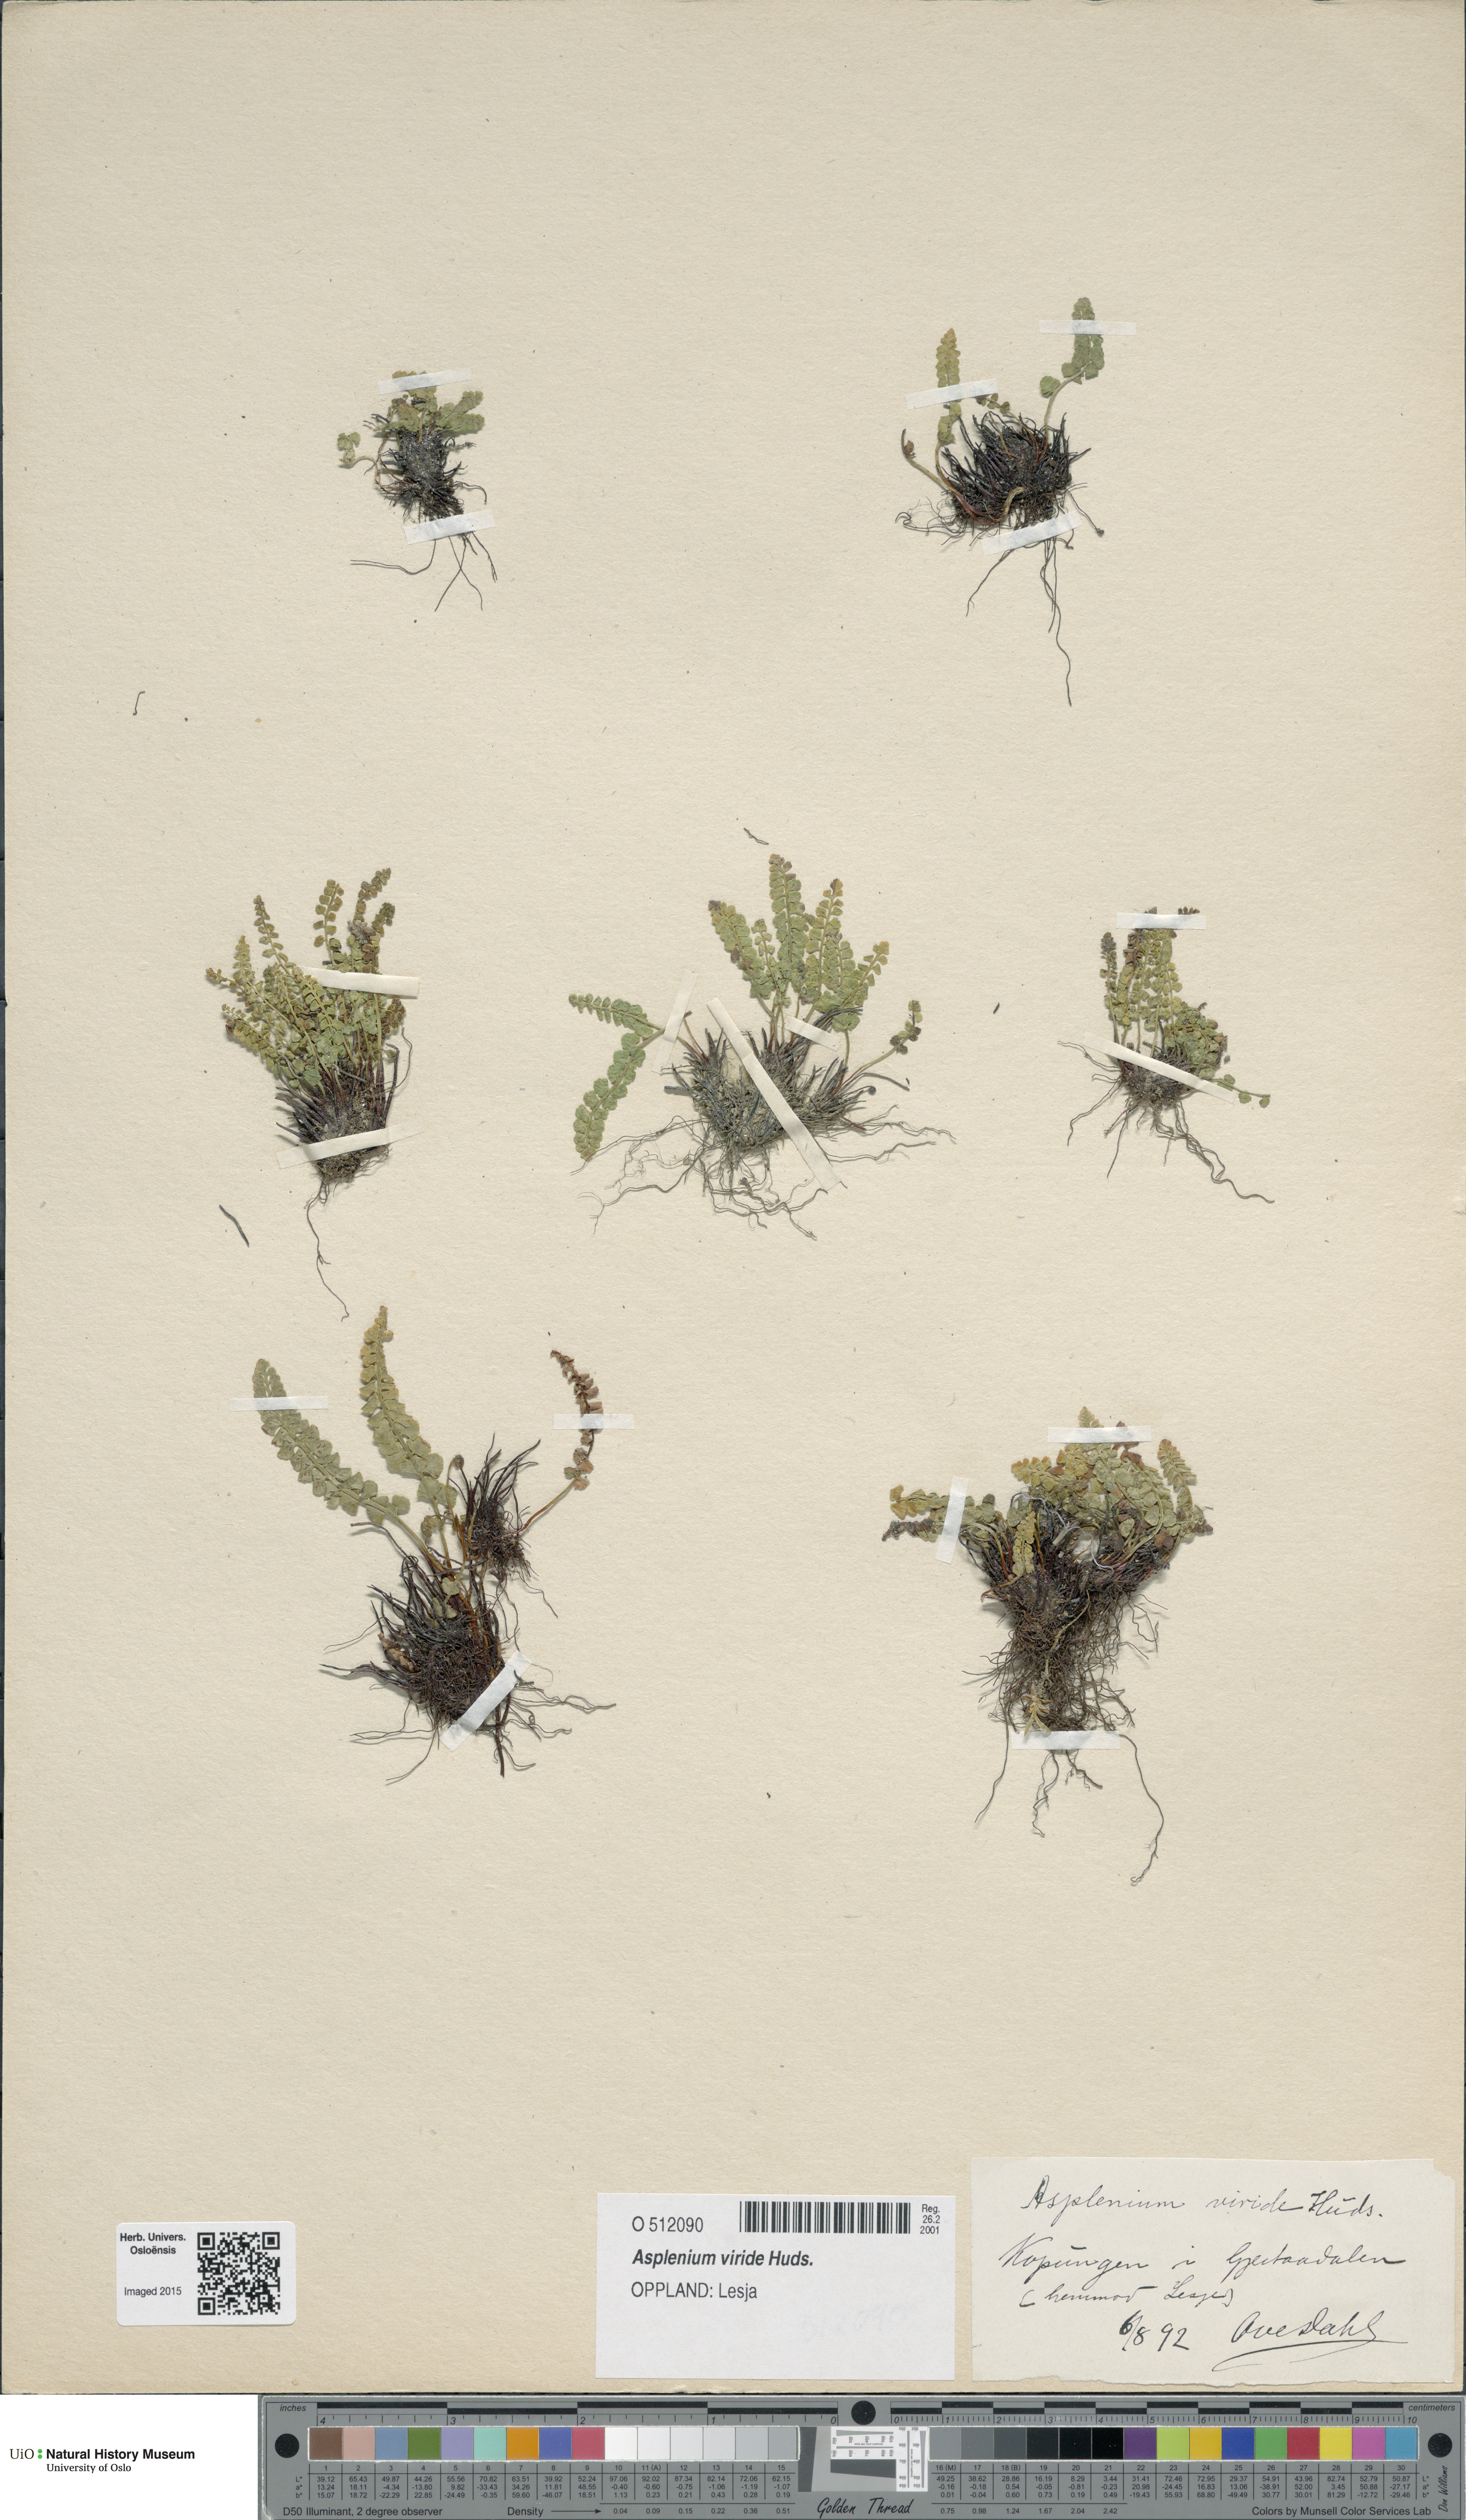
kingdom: Plantae
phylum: Tracheophyta
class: Polypodiopsida
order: Polypodiales
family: Aspleniaceae
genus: Asplenium
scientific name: Asplenium viride
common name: Green spleenwort
